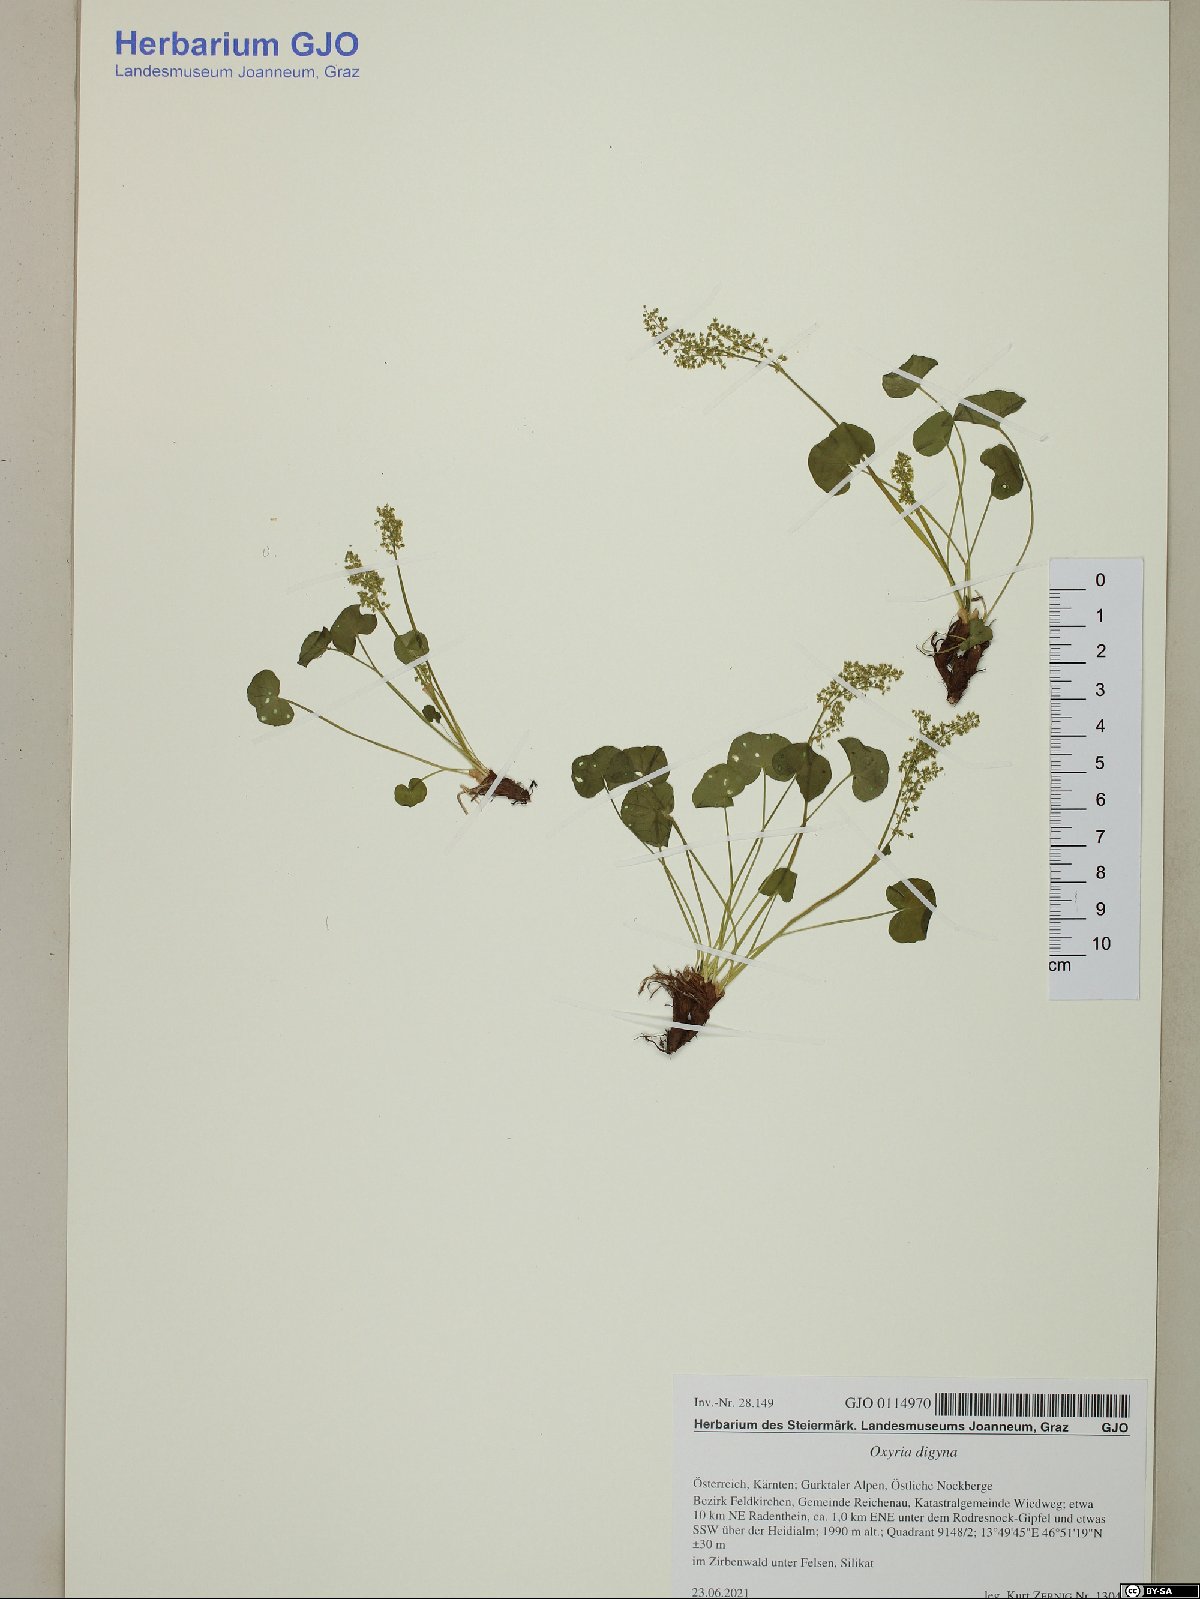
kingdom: Plantae
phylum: Tracheophyta
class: Magnoliopsida
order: Caryophyllales
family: Polygonaceae
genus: Oxyria
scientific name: Oxyria digyna
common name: Alpine mountain-sorrel
